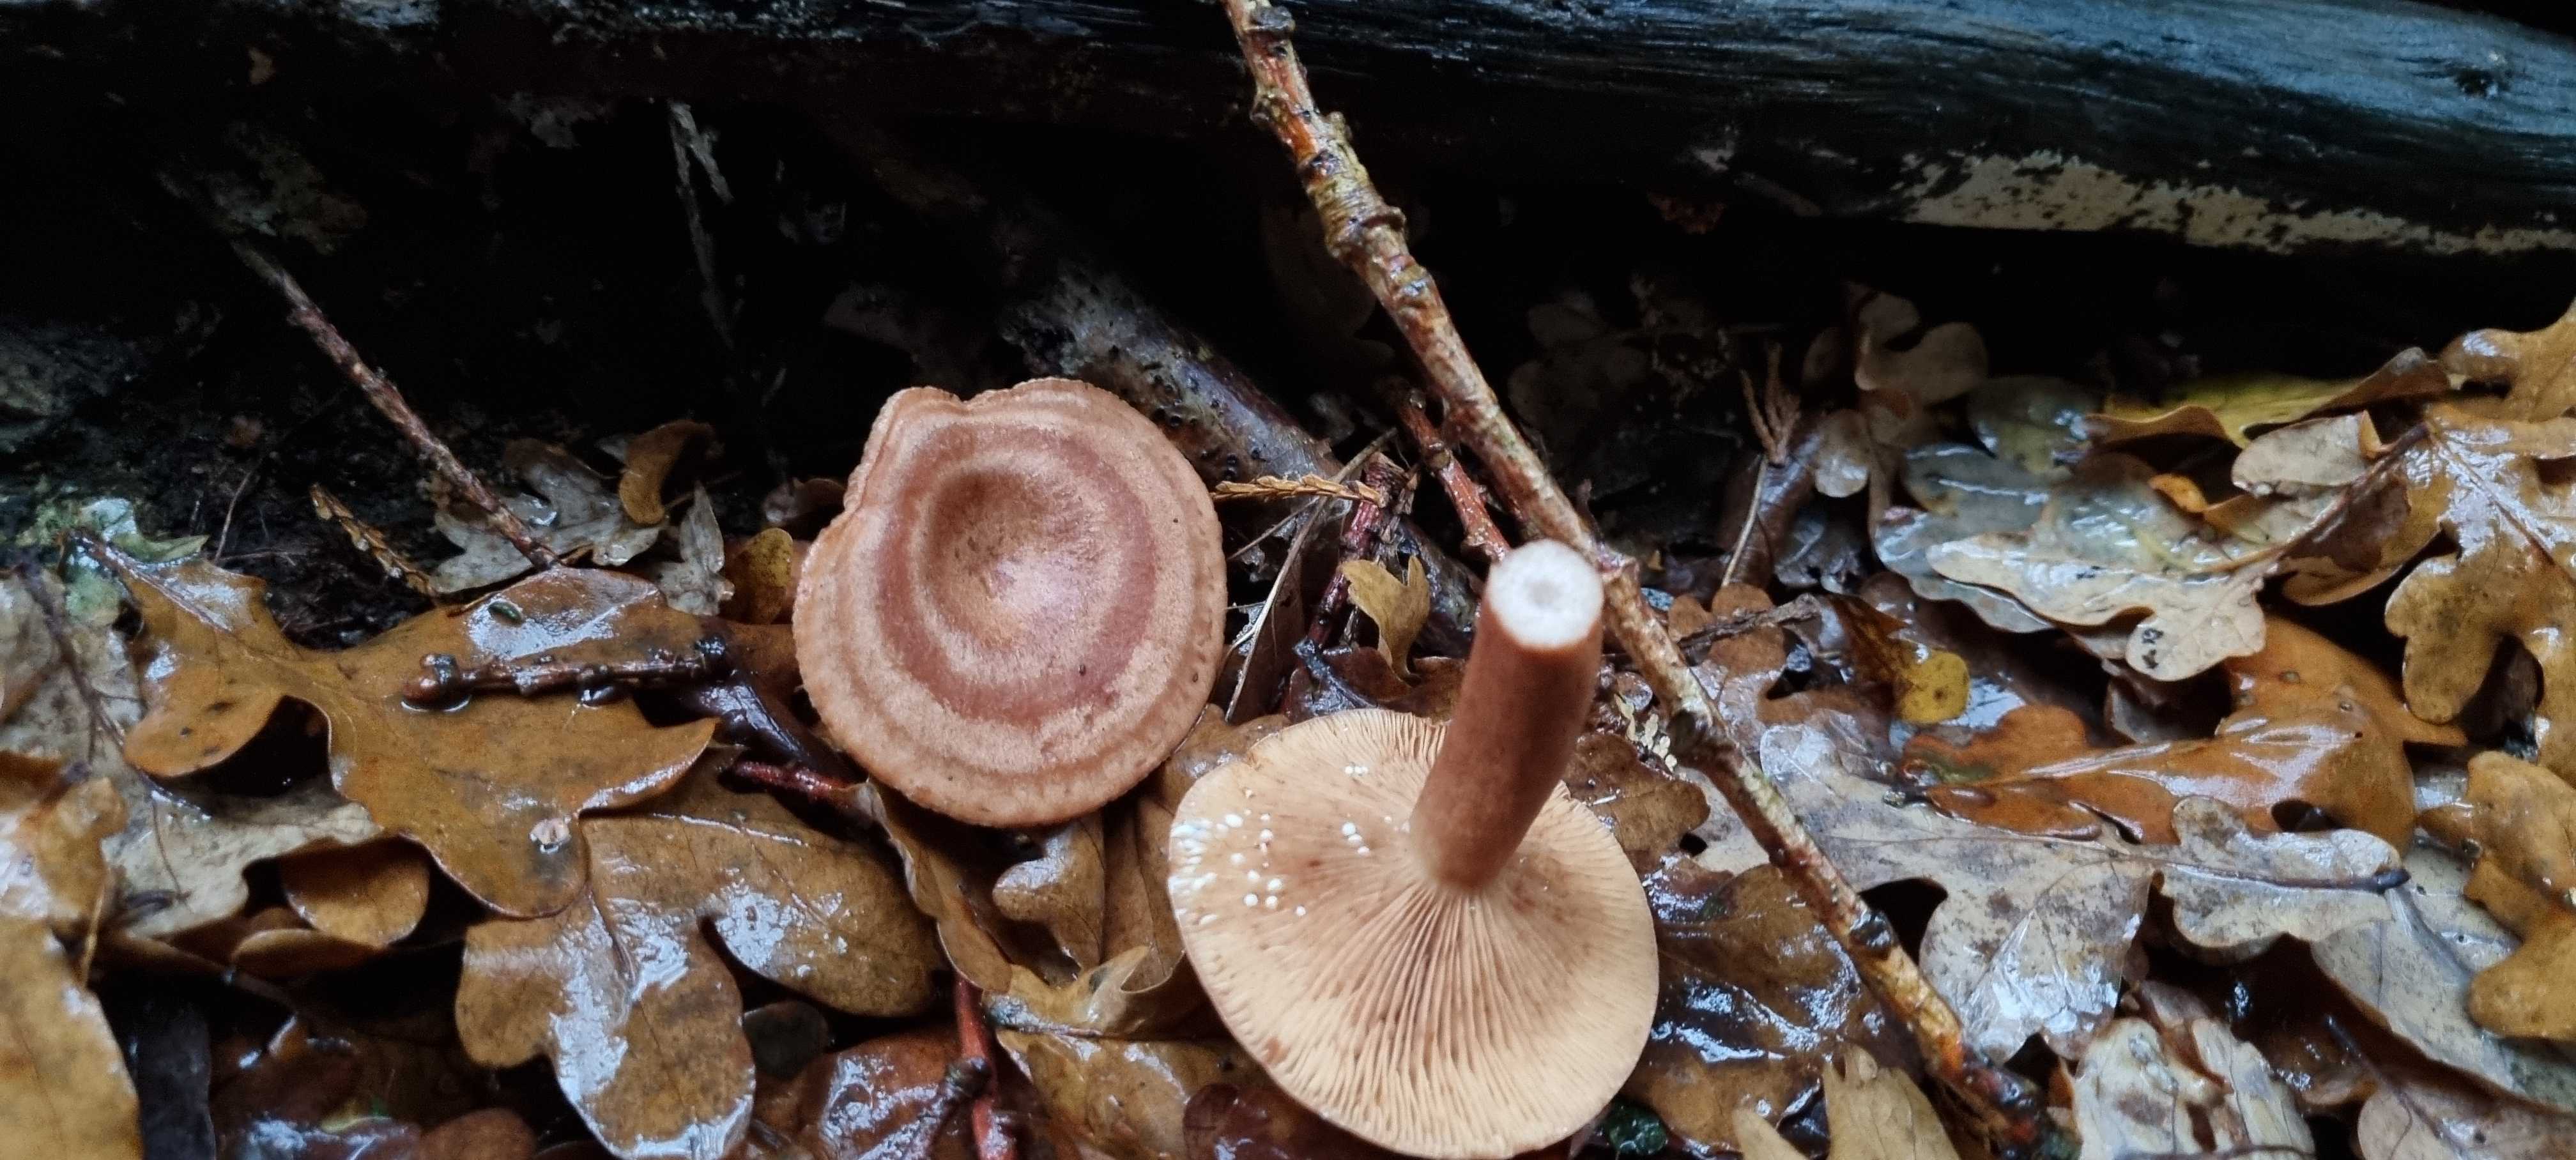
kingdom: Fungi
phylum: Basidiomycota
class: Agaricomycetes
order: Russulales
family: Russulaceae
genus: Lactarius
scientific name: Lactarius quietus
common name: ege-mælkehat
